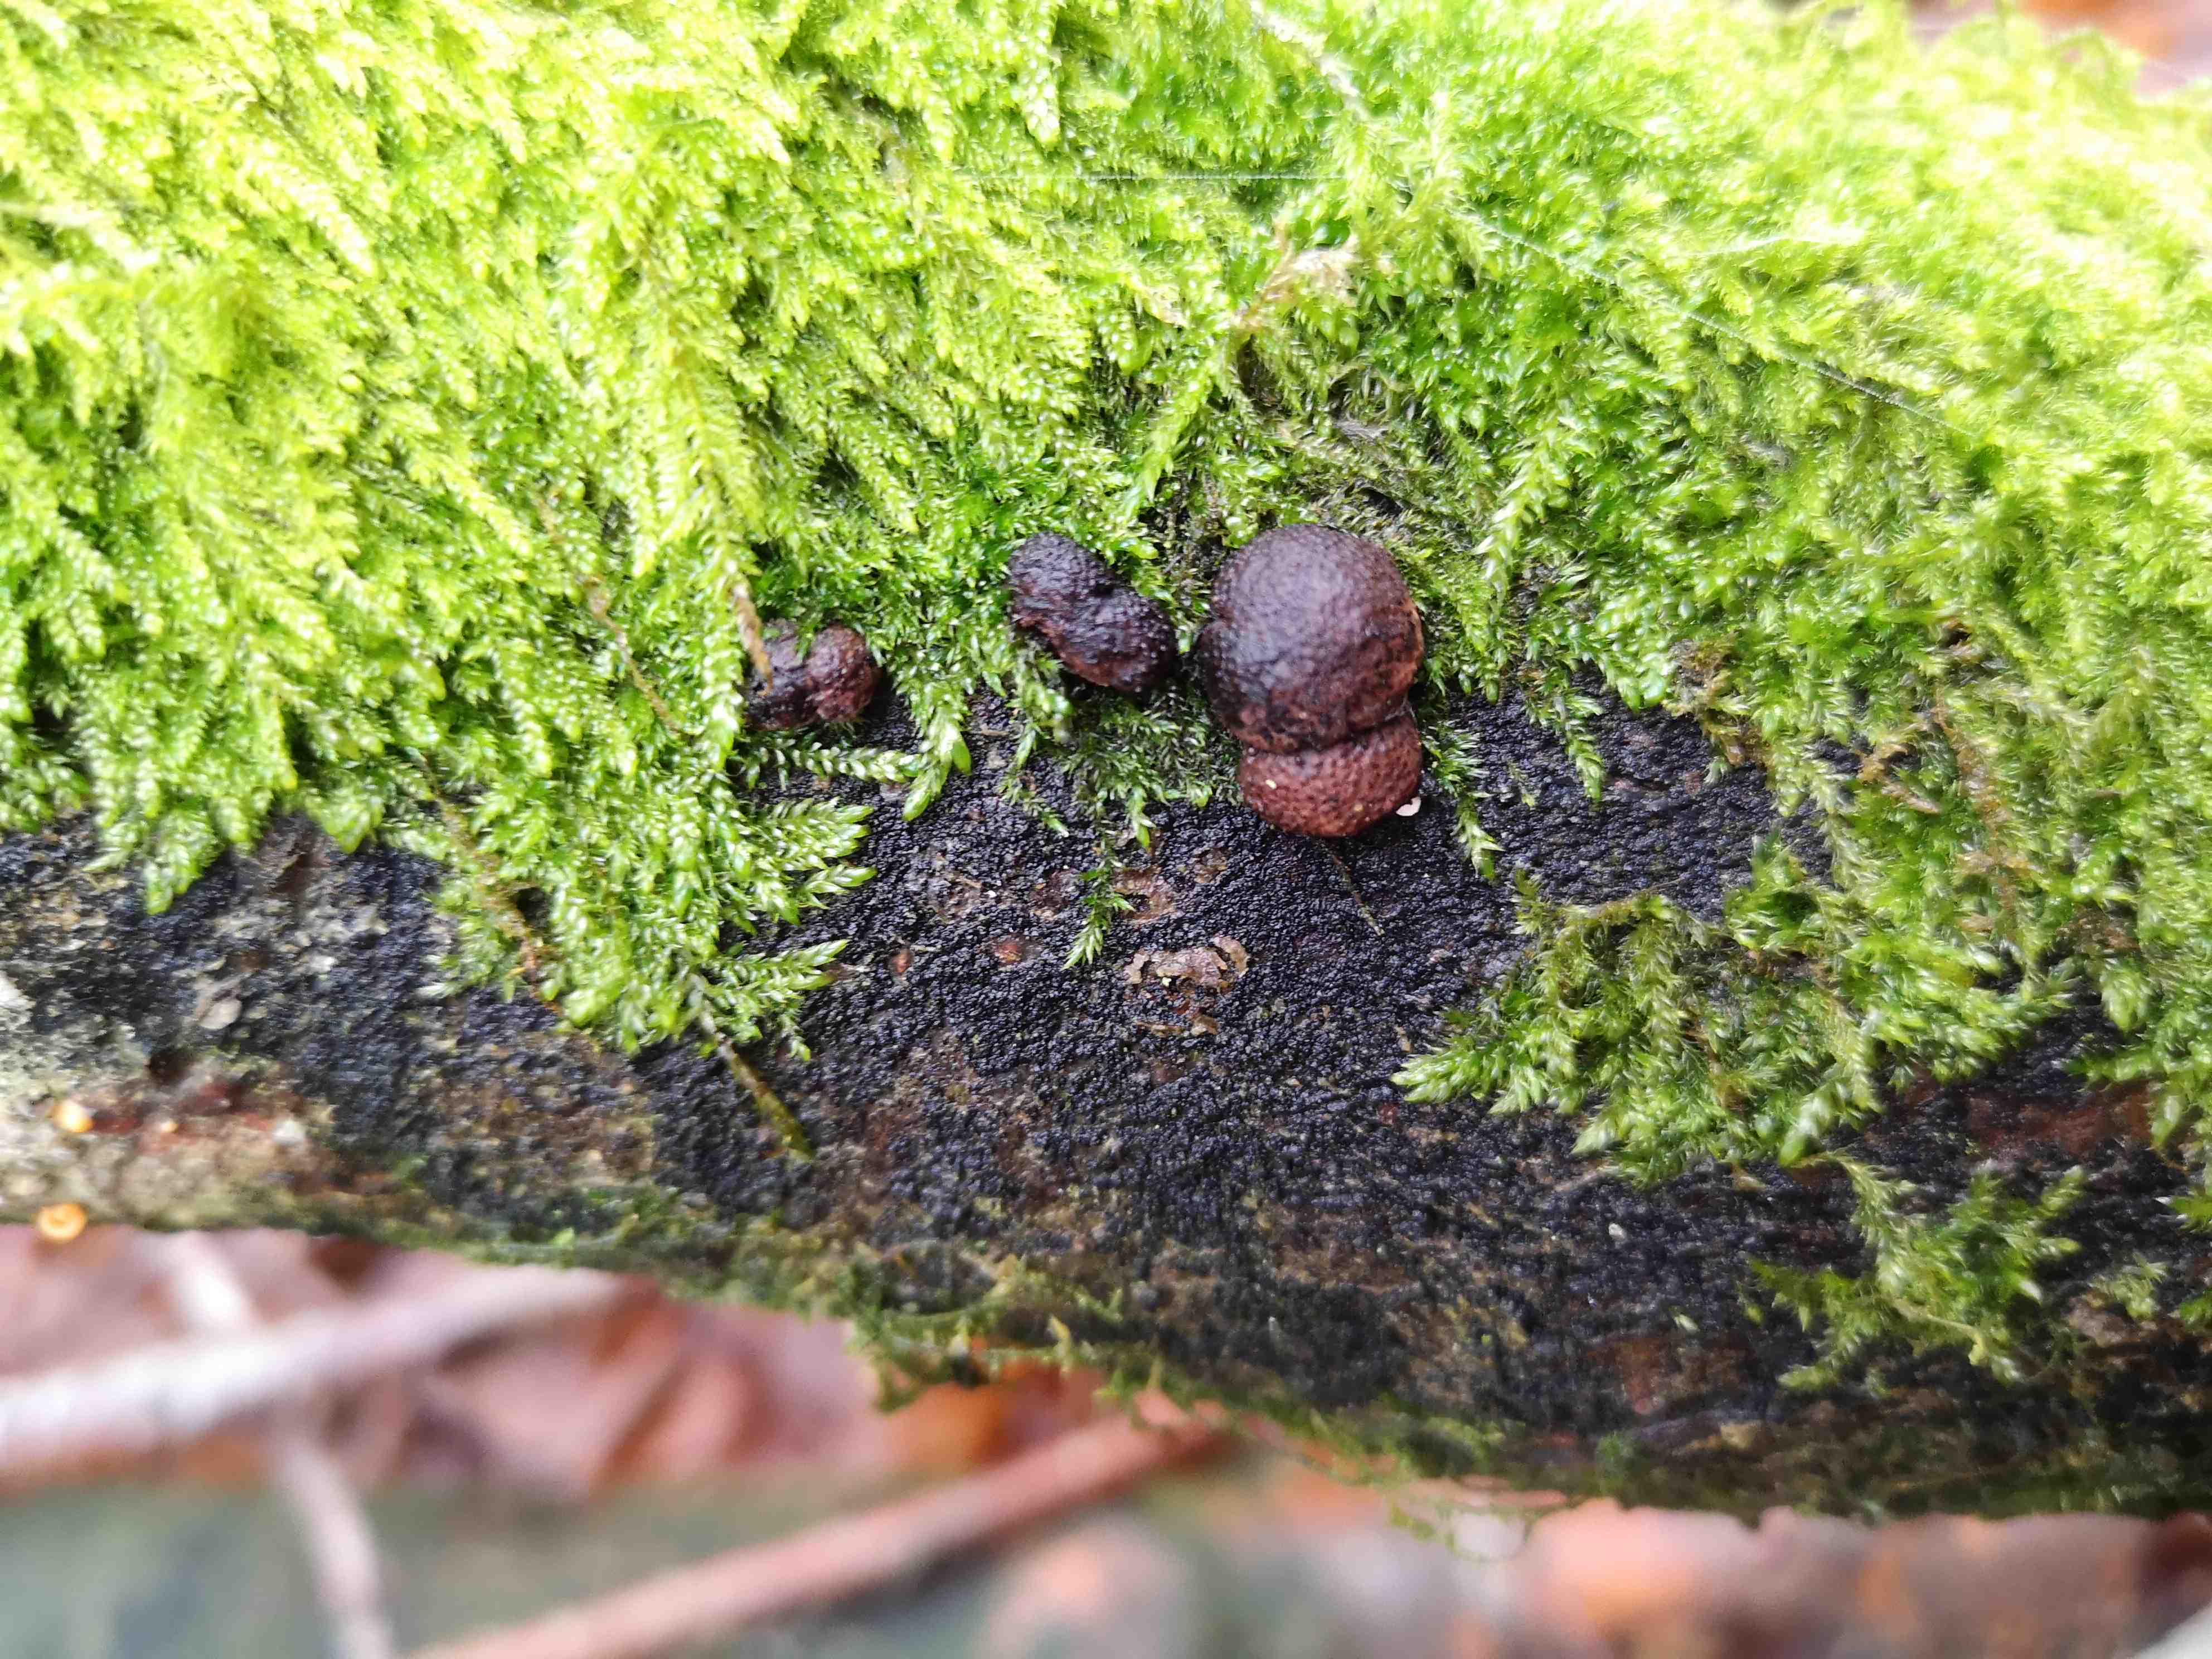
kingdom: Fungi
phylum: Ascomycota
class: Sordariomycetes
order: Xylariales
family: Hypoxylaceae
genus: Hypoxylon
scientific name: Hypoxylon fragiforme
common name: kuljordbær
